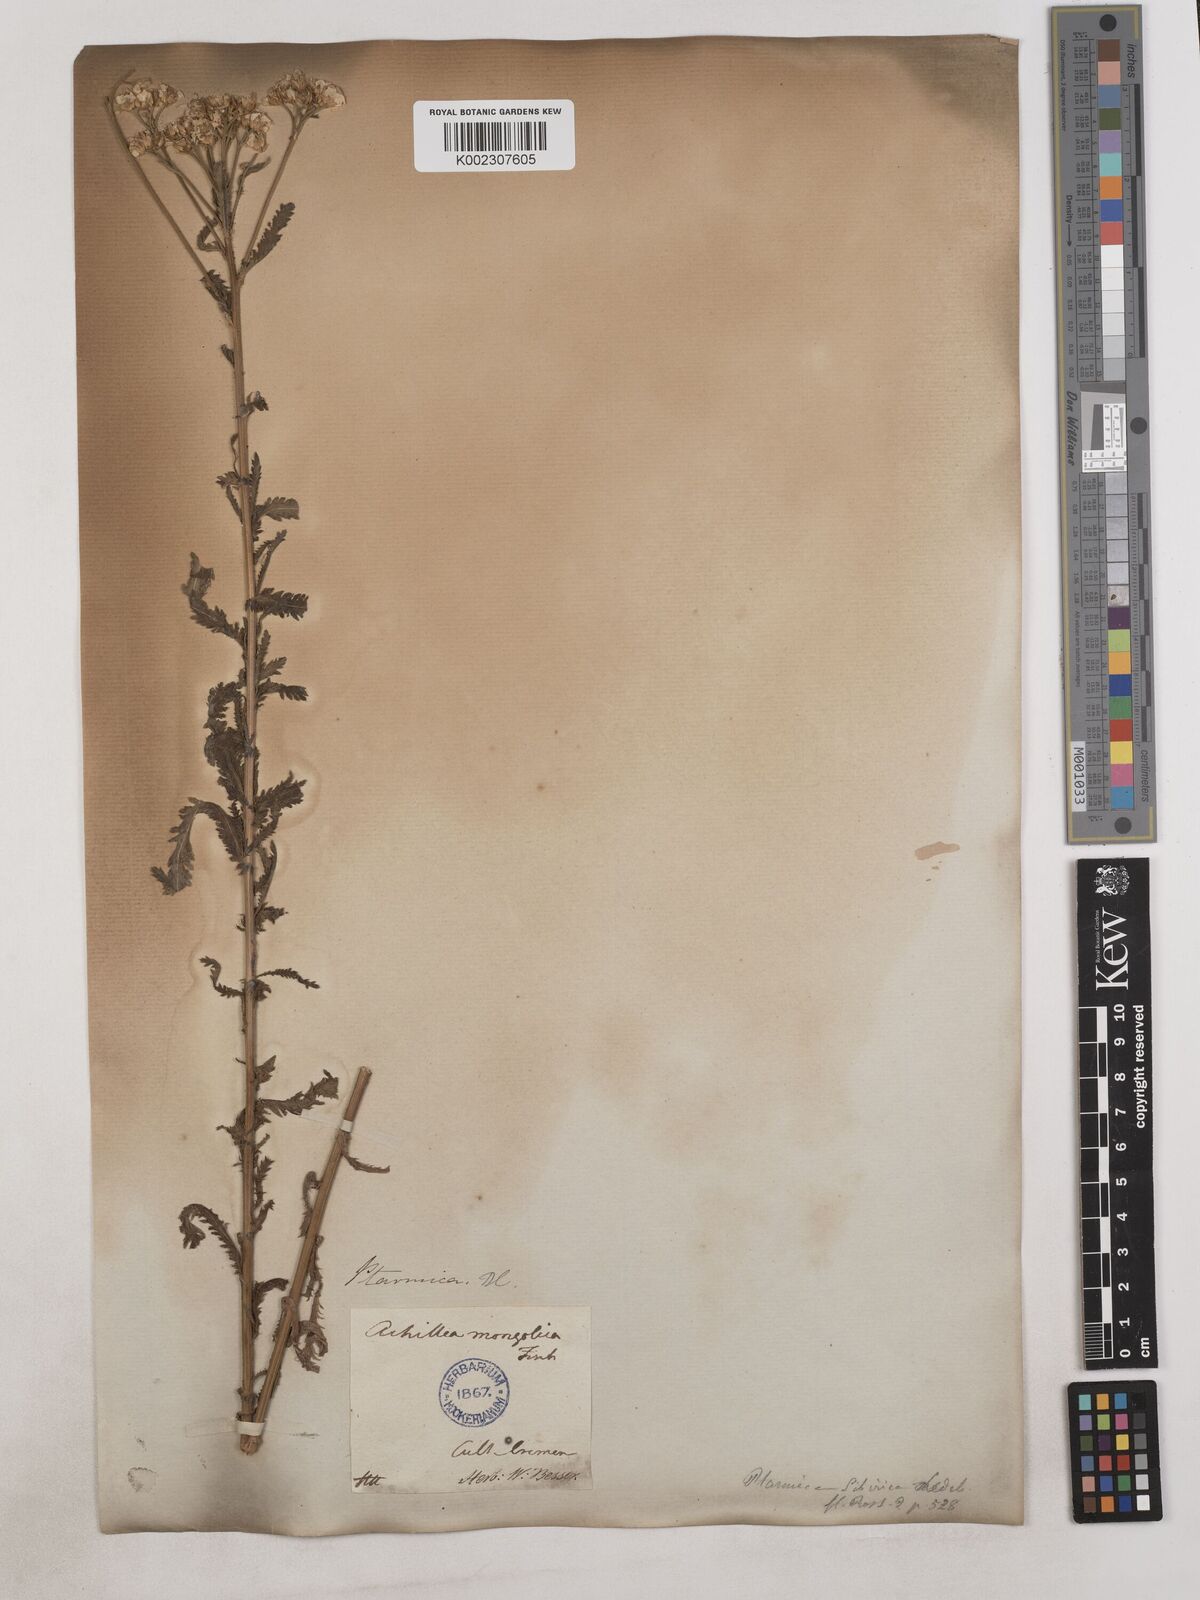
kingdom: Plantae
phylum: Tracheophyta
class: Magnoliopsida
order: Asterales
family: Asteraceae
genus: Achillea
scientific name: Achillea alpina
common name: Siberian yarrow
